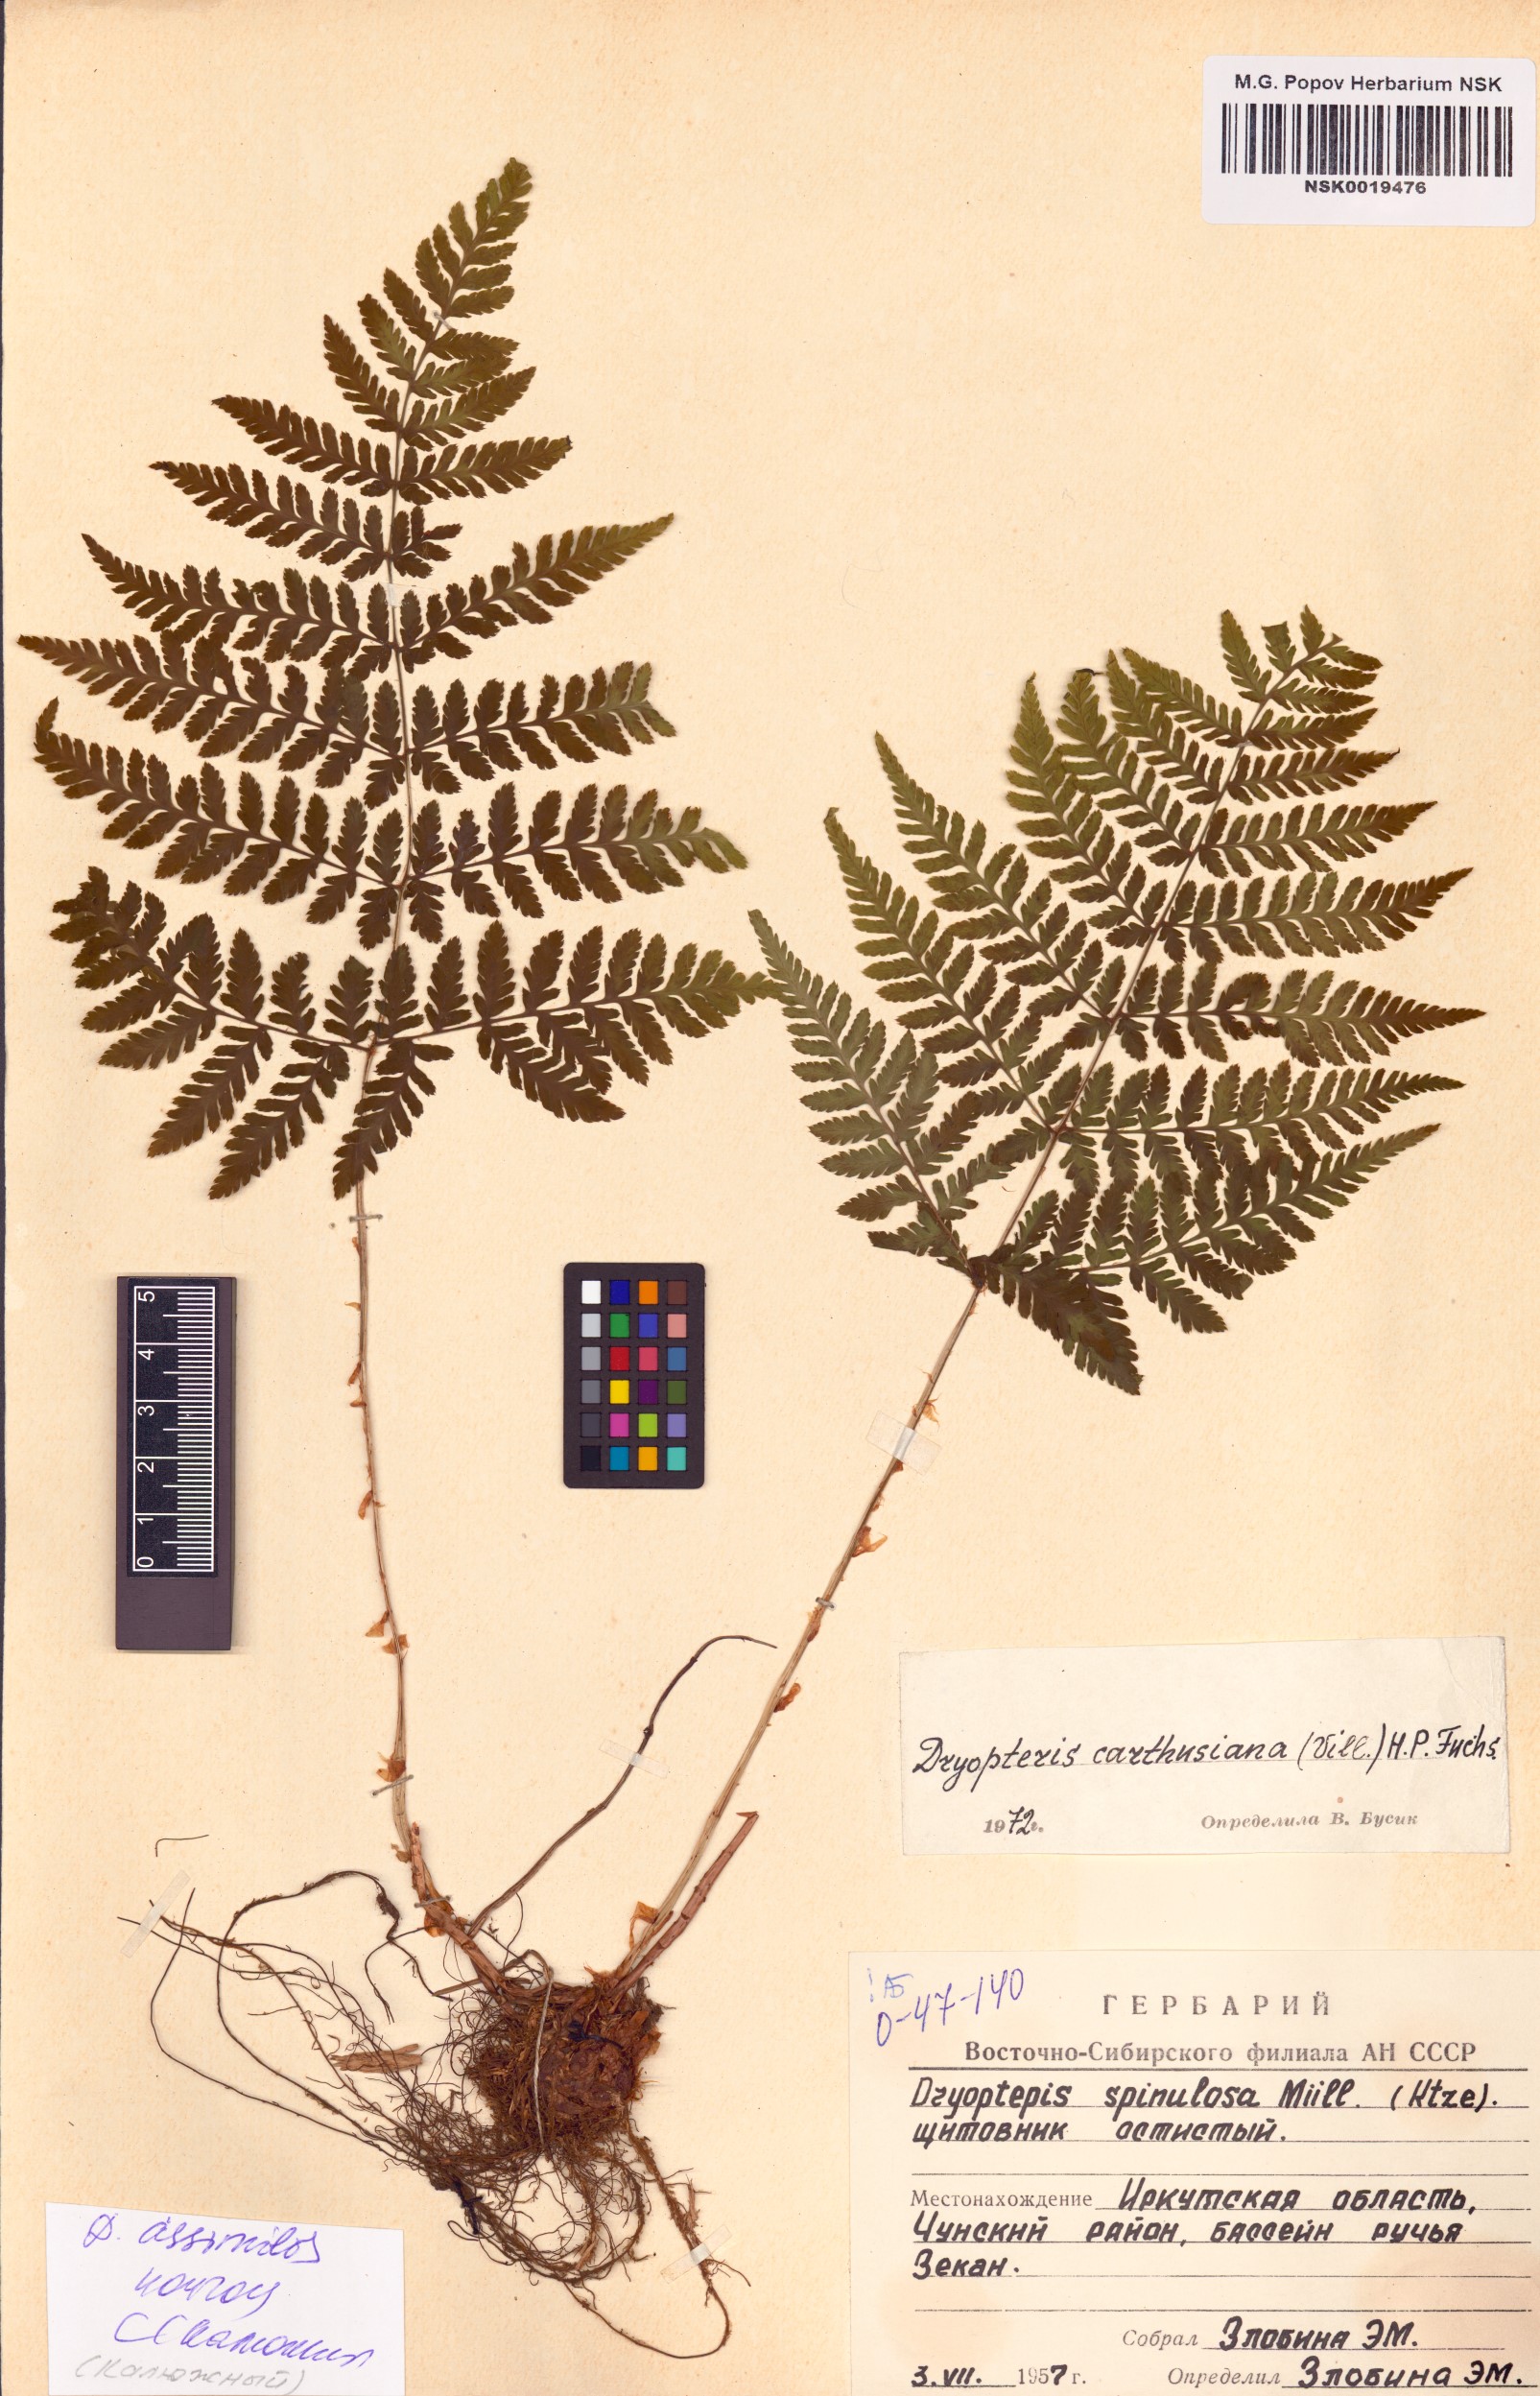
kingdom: Plantae
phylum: Tracheophyta
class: Polypodiopsida
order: Polypodiales
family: Dryopteridaceae
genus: Dryopteris
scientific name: Dryopteris expansa
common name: Northern buckler fern
